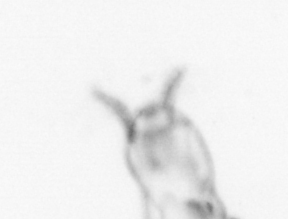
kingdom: Animalia
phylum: Arthropoda
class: Copepoda
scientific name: Copepoda
